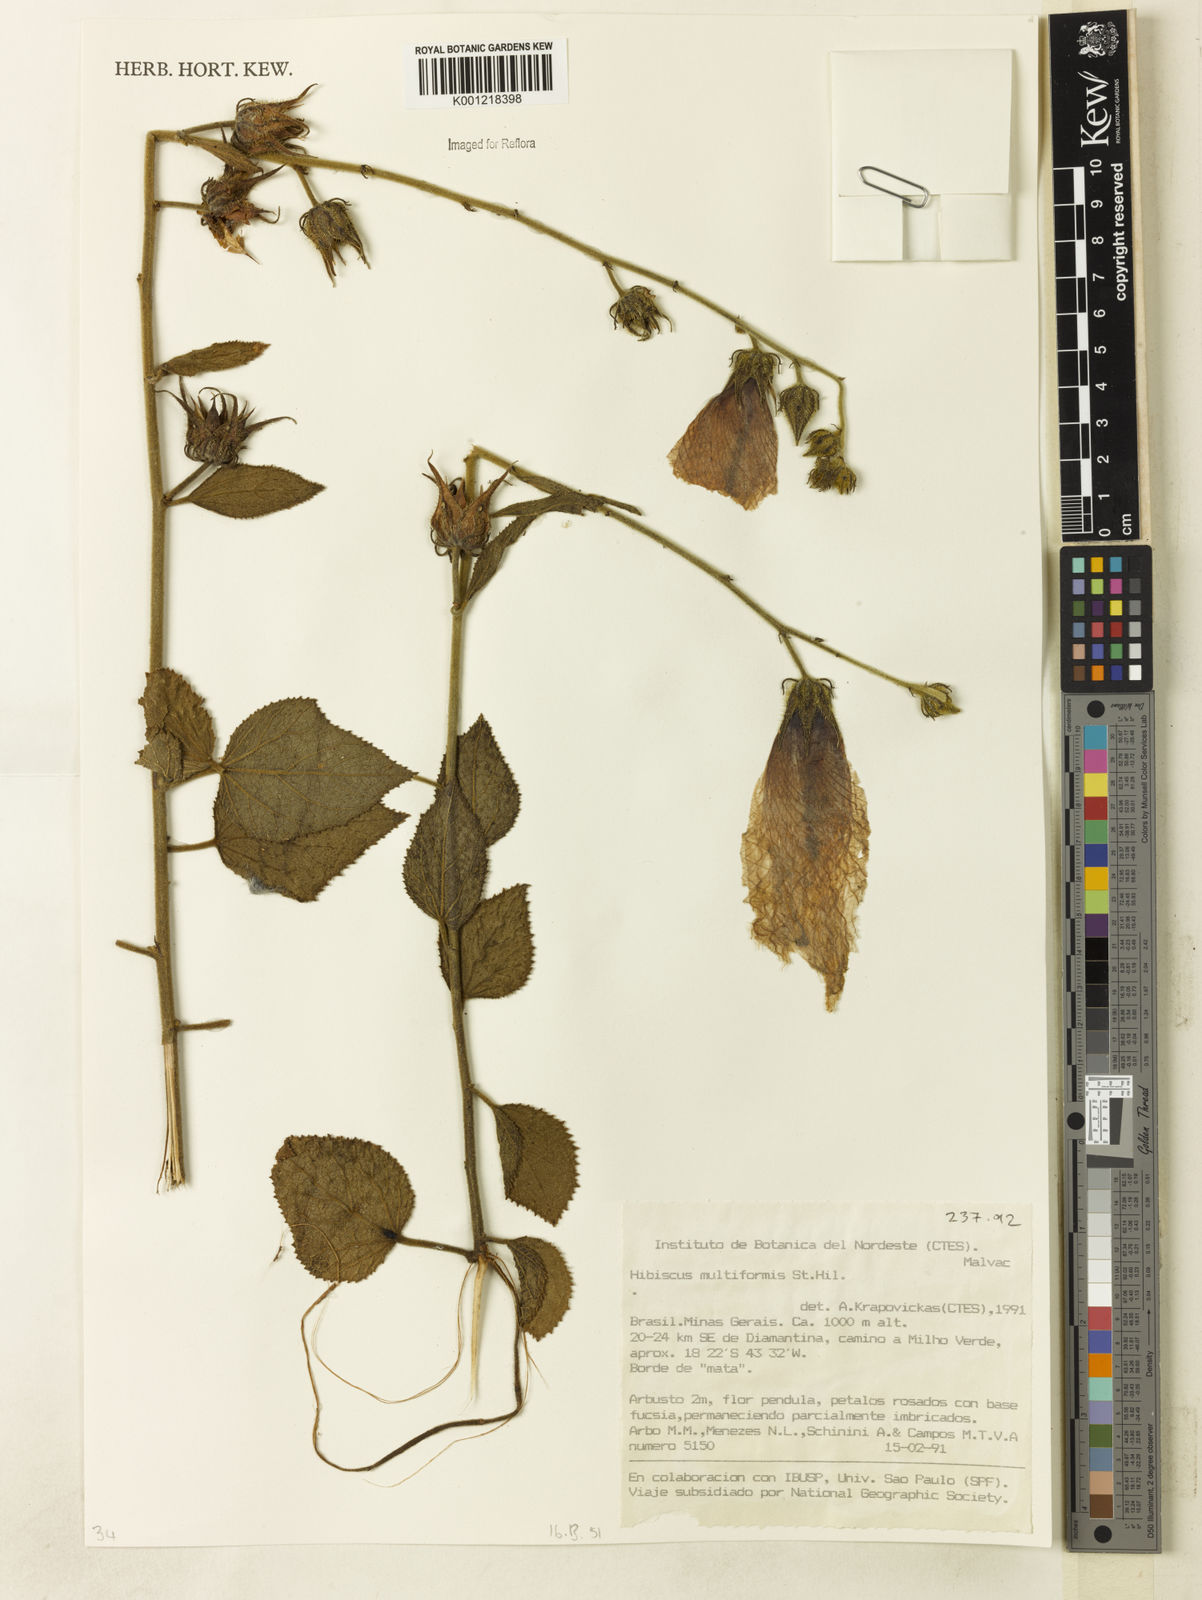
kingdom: Plantae
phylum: Tracheophyta
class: Magnoliopsida
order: Malvales
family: Malvaceae
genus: Hibiscus
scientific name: Hibiscus multiformis
